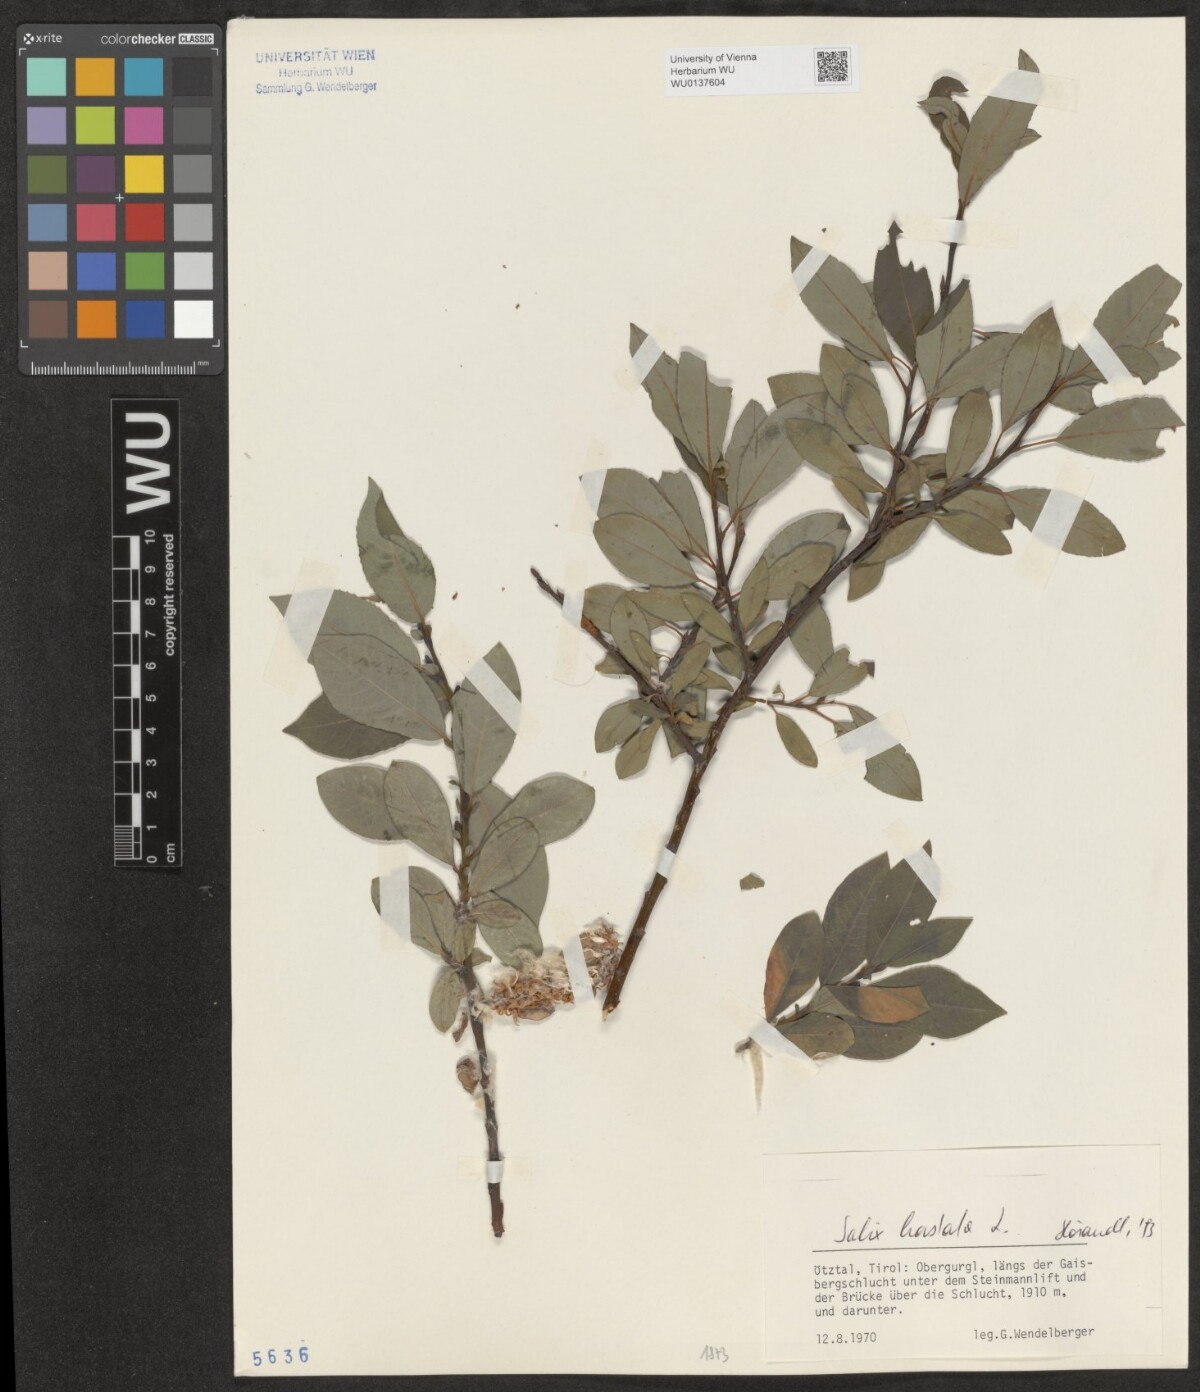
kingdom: Plantae
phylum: Tracheophyta
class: Magnoliopsida
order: Malpighiales
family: Salicaceae
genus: Salix
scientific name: Salix hastata
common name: Halberd willow
